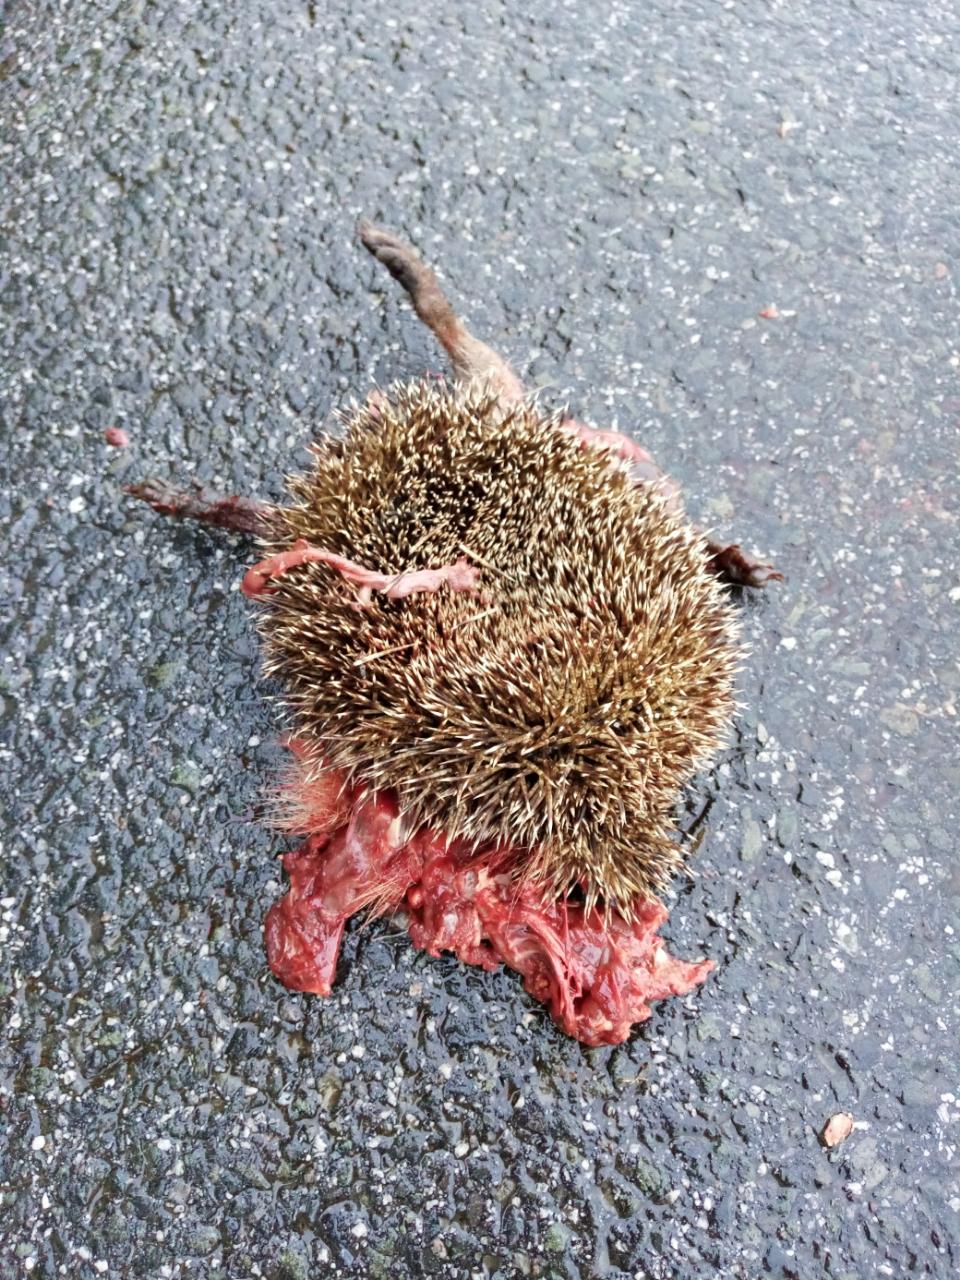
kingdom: Animalia
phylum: Chordata
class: Mammalia
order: Erinaceomorpha
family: Erinaceidae
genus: Erinaceus
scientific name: Erinaceus
